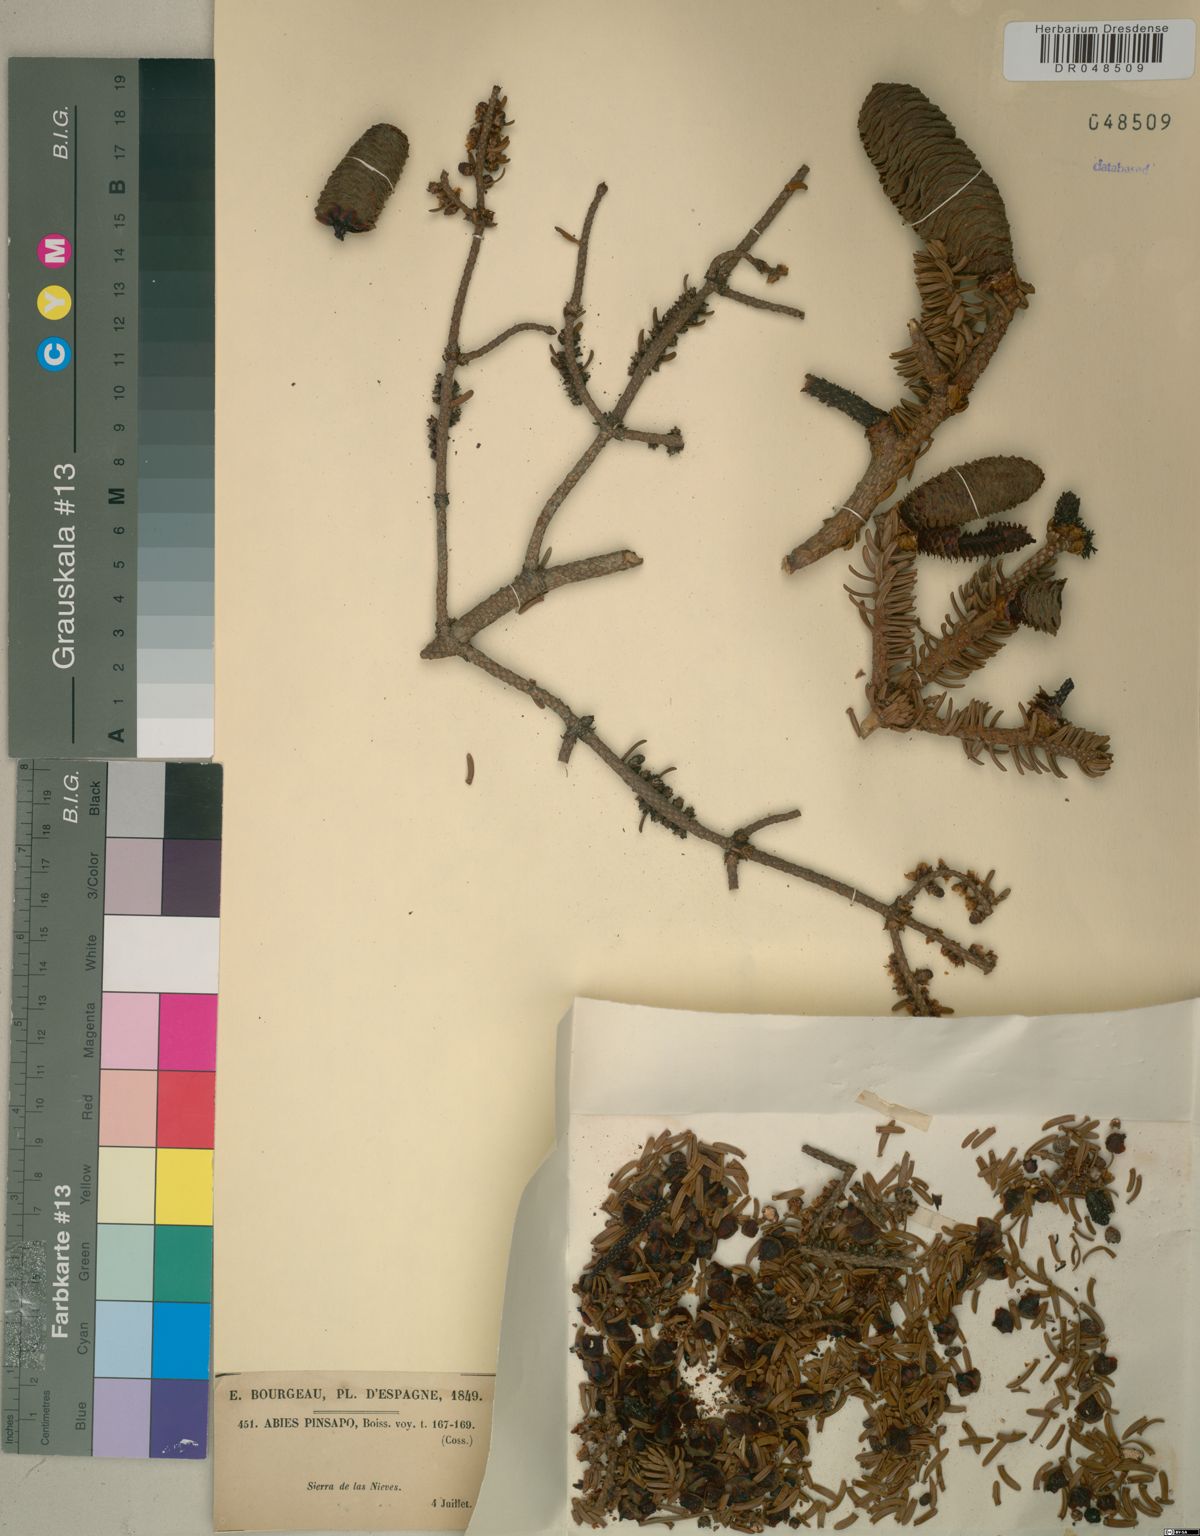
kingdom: Plantae
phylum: Tracheophyta
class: Pinopsida
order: Pinales
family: Pinaceae
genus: Abies
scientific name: Abies pinsapo
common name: Spanish fir
